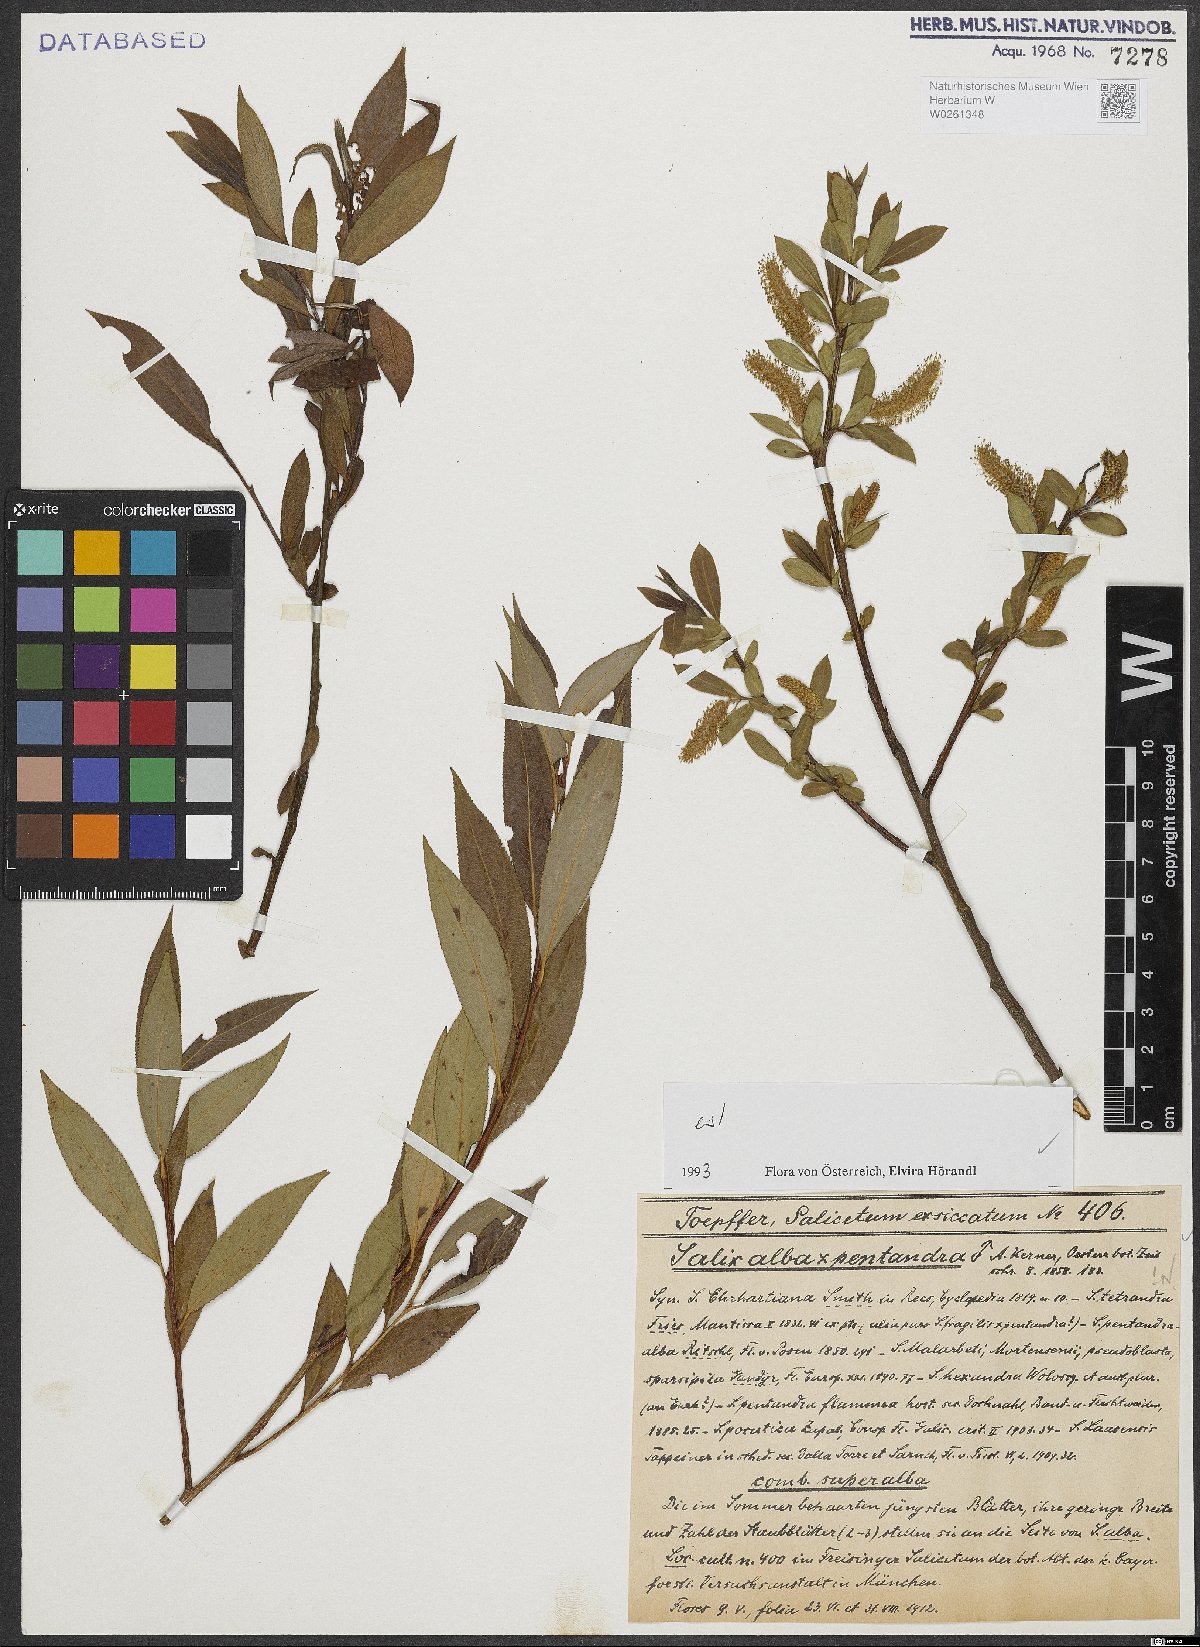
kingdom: Plantae
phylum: Tracheophyta
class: Magnoliopsida
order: Malpighiales
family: Salicaceae
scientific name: Salicaceae
